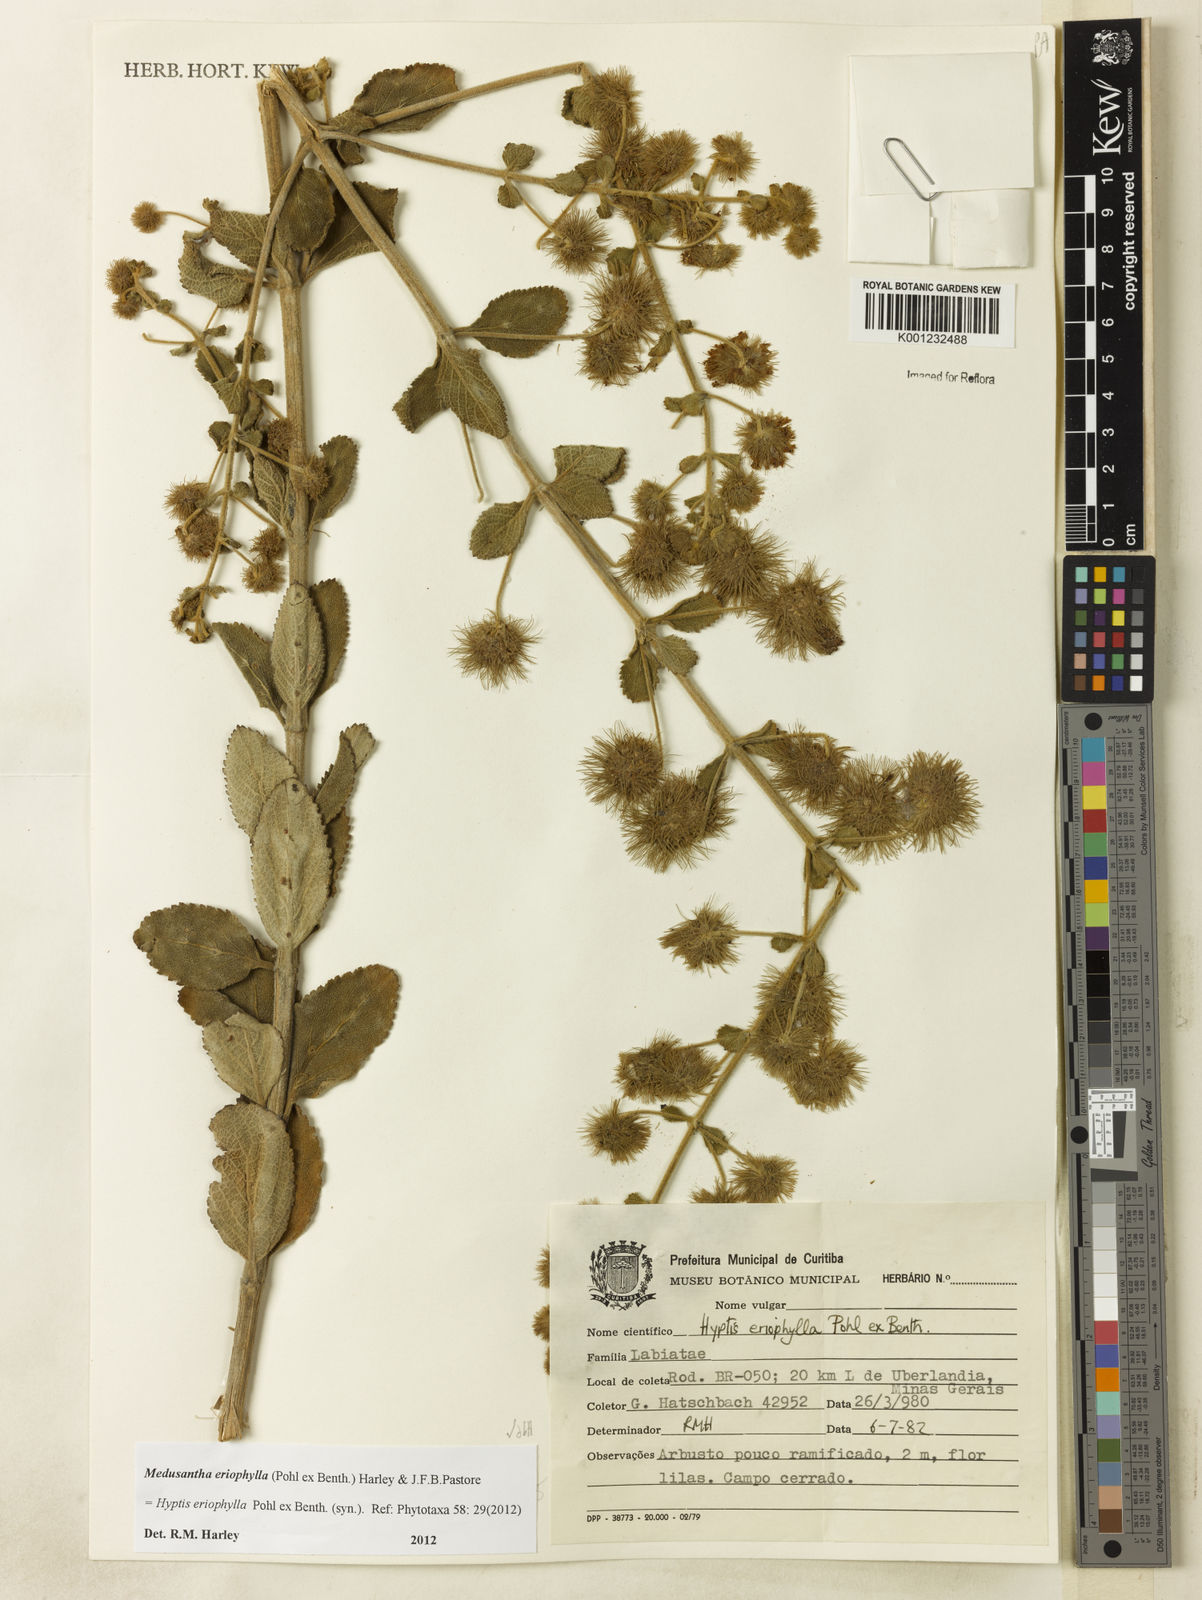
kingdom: Plantae
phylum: Tracheophyta
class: Magnoliopsida
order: Lamiales
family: Lamiaceae
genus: Medusantha
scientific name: Medusantha eriophylla
